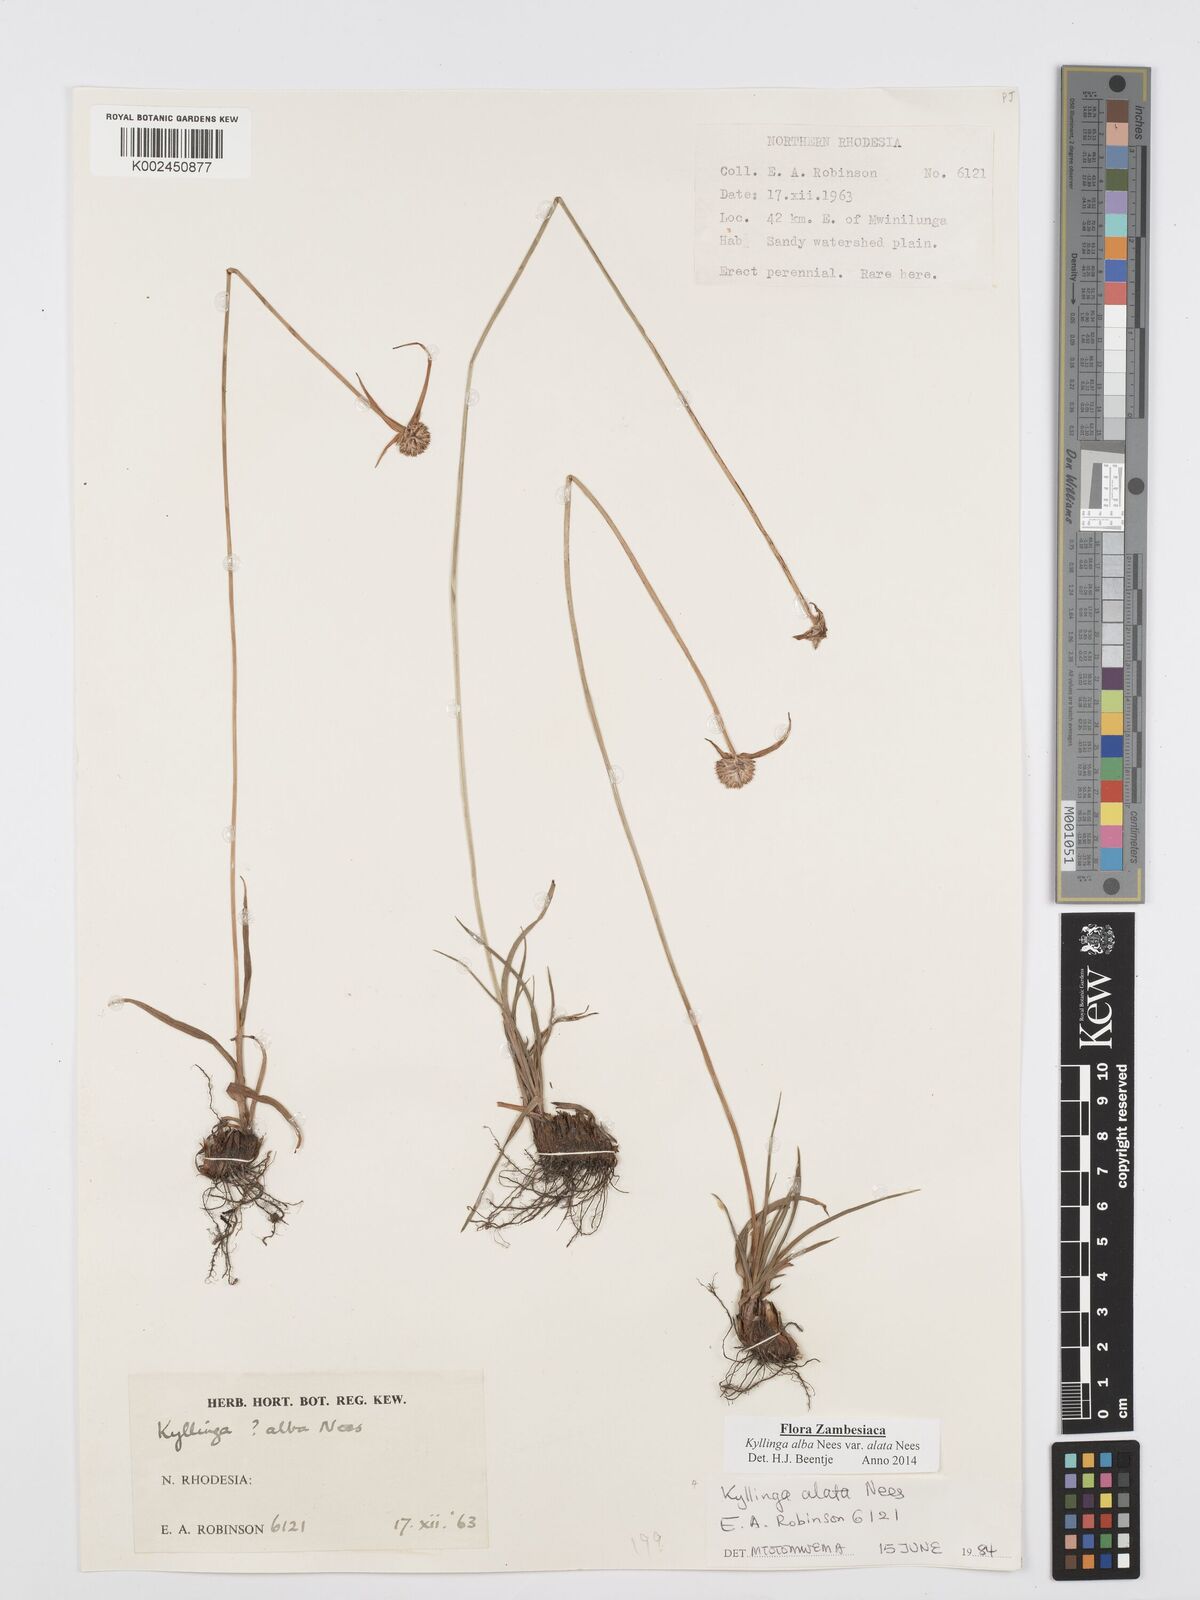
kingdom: Plantae
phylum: Tracheophyta
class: Liliopsida
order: Poales
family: Cyperaceae
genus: Cyperus
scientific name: Cyperus
